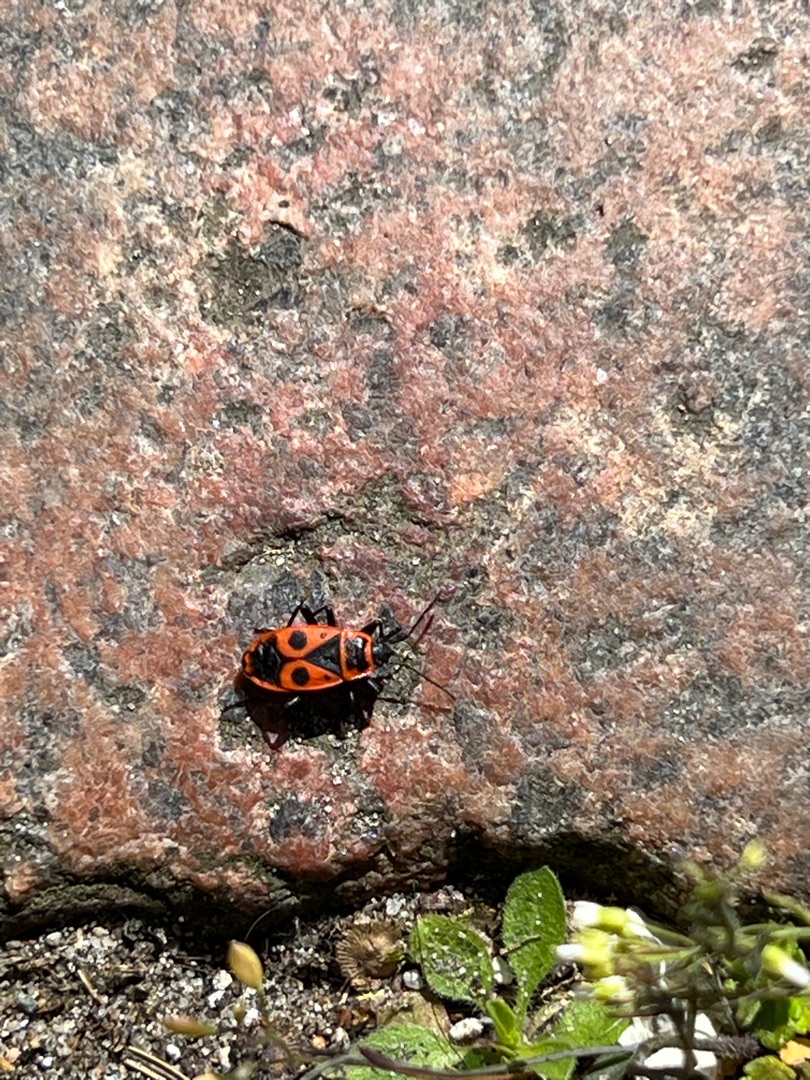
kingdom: Animalia
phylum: Arthropoda
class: Insecta
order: Hemiptera
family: Pyrrhocoridae
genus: Pyrrhocoris
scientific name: Pyrrhocoris apterus
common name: Ildtæge
